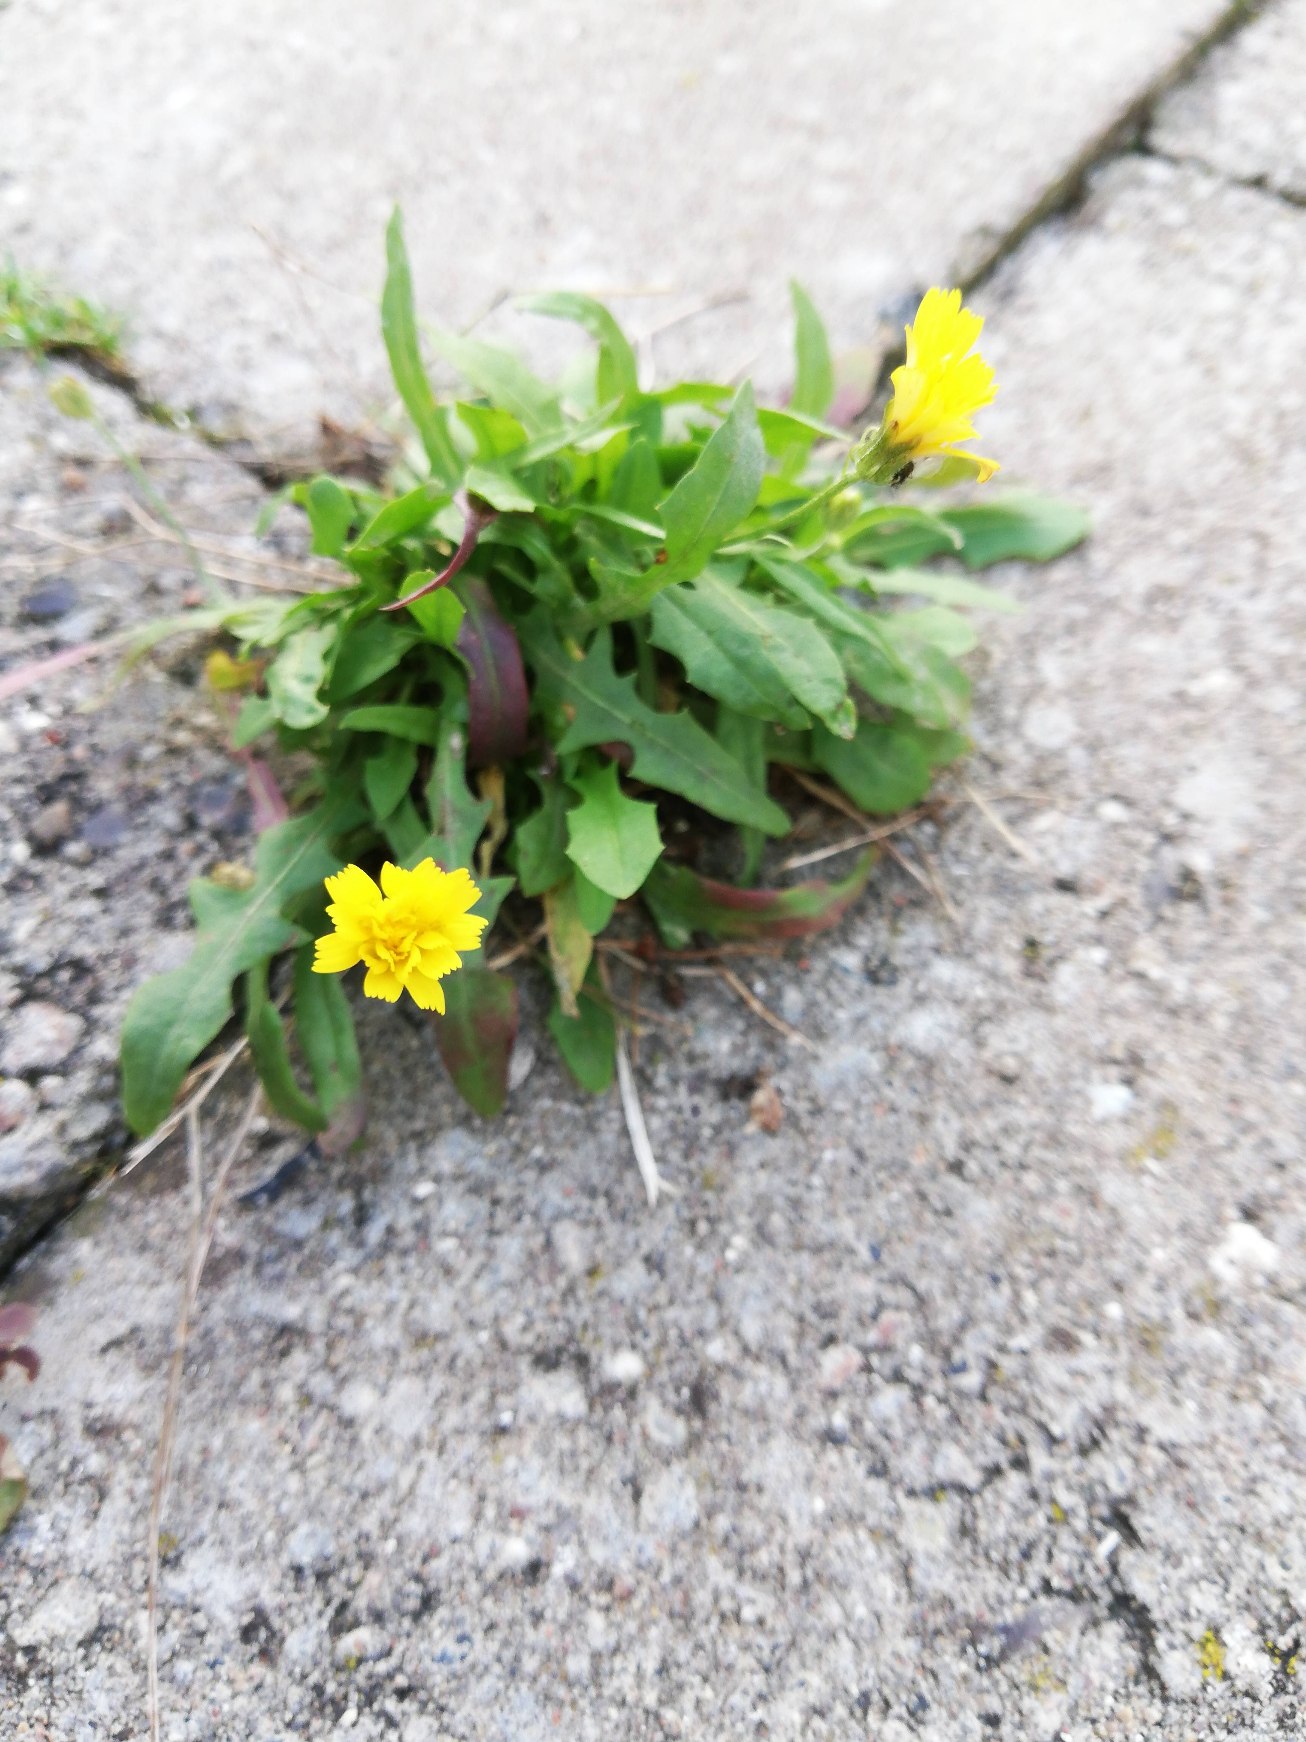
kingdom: Plantae
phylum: Tracheophyta
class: Magnoliopsida
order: Asterales
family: Asteraceae
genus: Crepis
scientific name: Crepis capillaris
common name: Grøn høgeskæg
